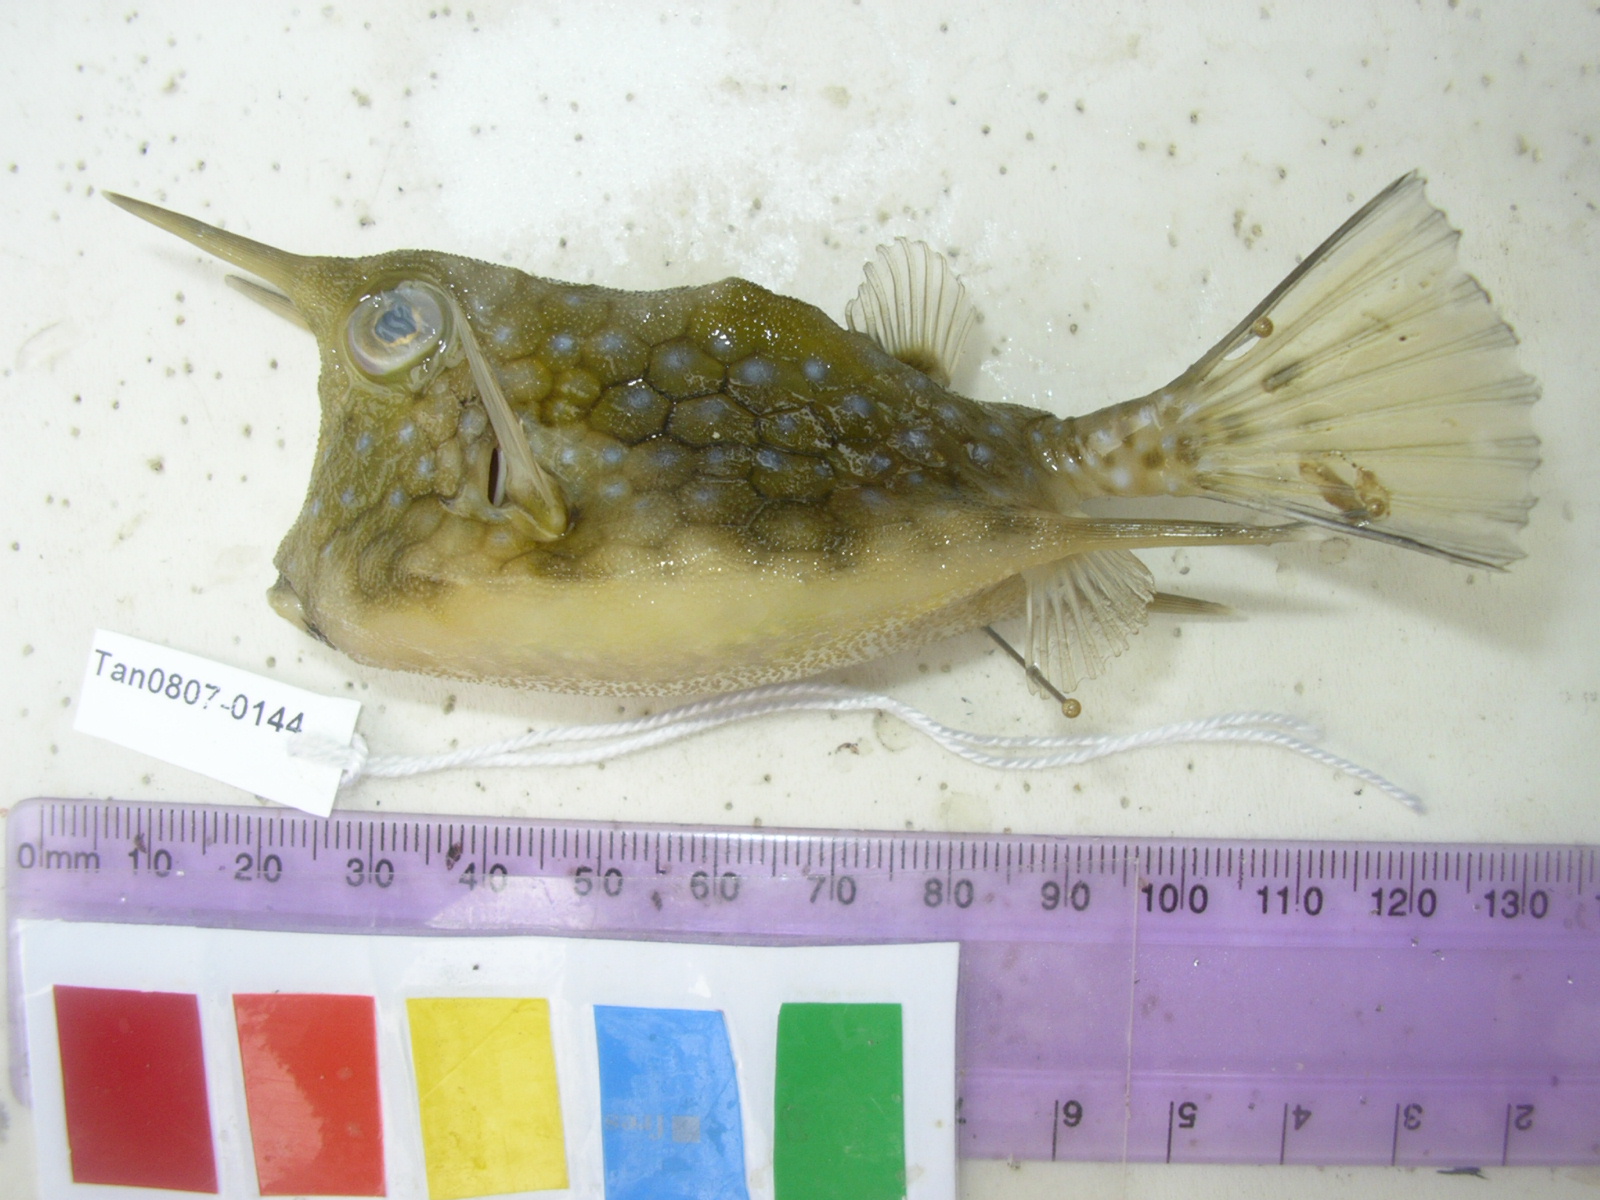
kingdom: Animalia
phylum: Chordata
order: Tetraodontiformes
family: Ostraciidae
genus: Lactoria
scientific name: Lactoria cornuta
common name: Longhorn cowfish
